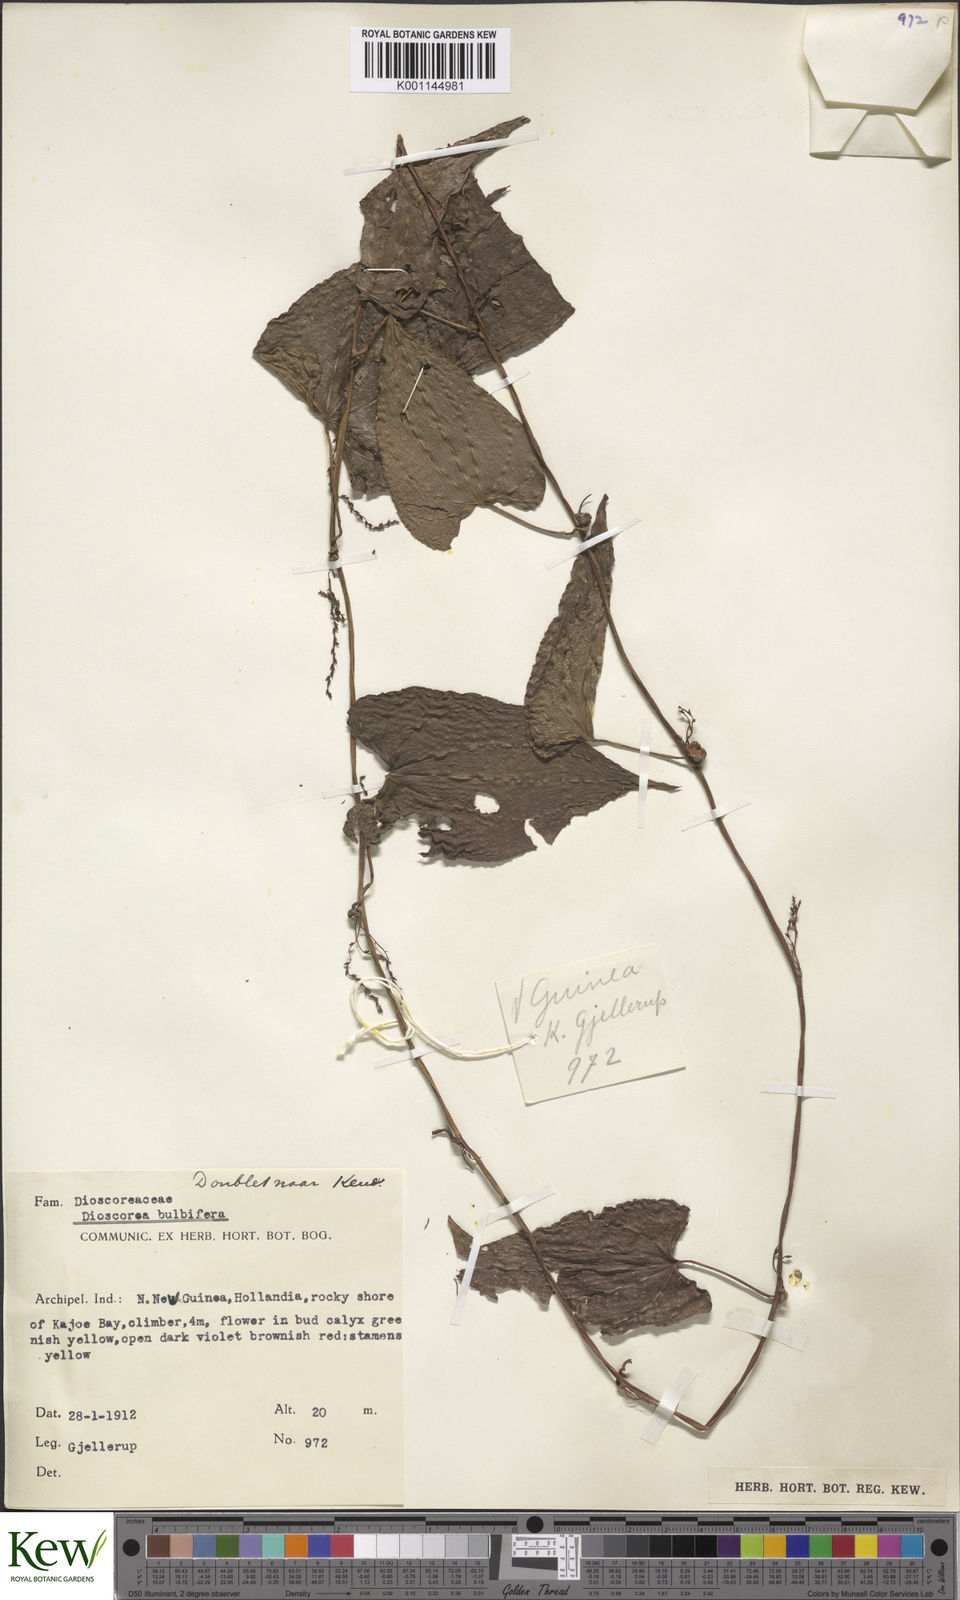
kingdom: Plantae
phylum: Tracheophyta
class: Liliopsida
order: Dioscoreales
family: Dioscoreaceae
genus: Dioscorea
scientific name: Dioscorea bulbifera
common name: Air yam
